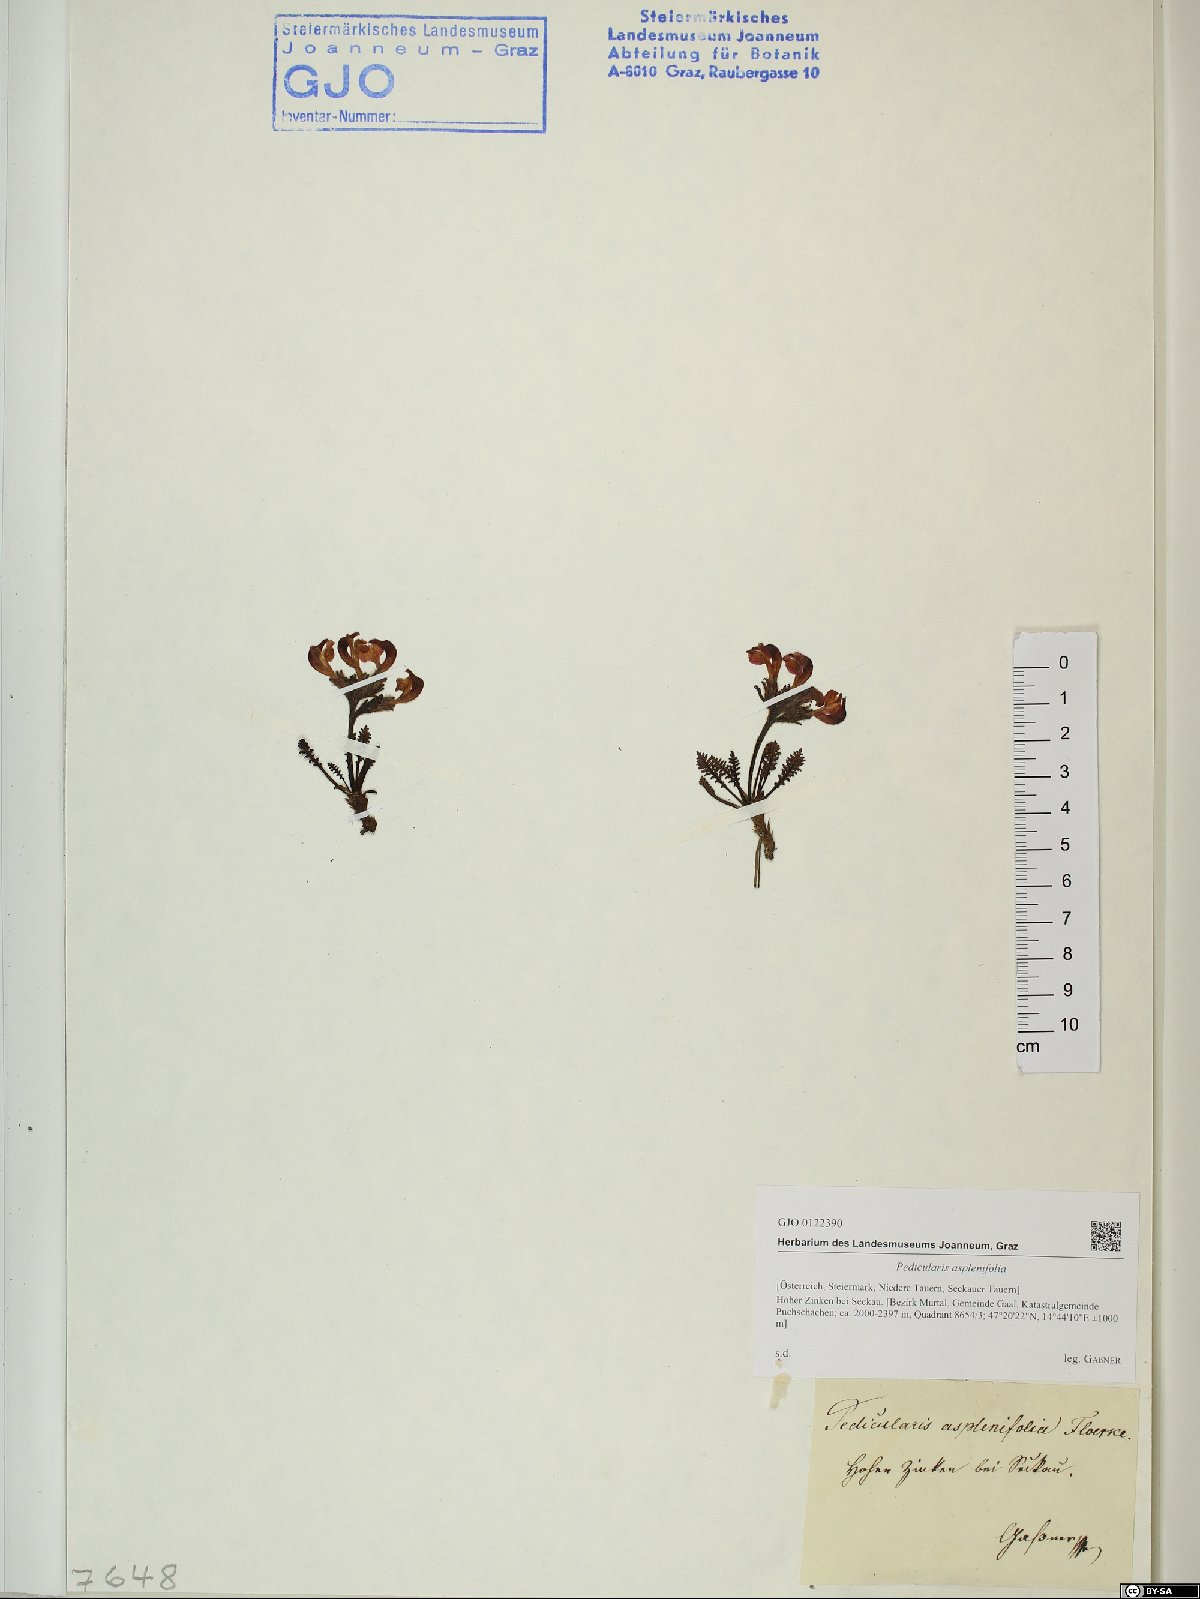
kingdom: Plantae
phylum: Tracheophyta
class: Magnoliopsida
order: Lamiales
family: Orobanchaceae
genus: Pedicularis
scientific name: Pedicularis asplenifolia
